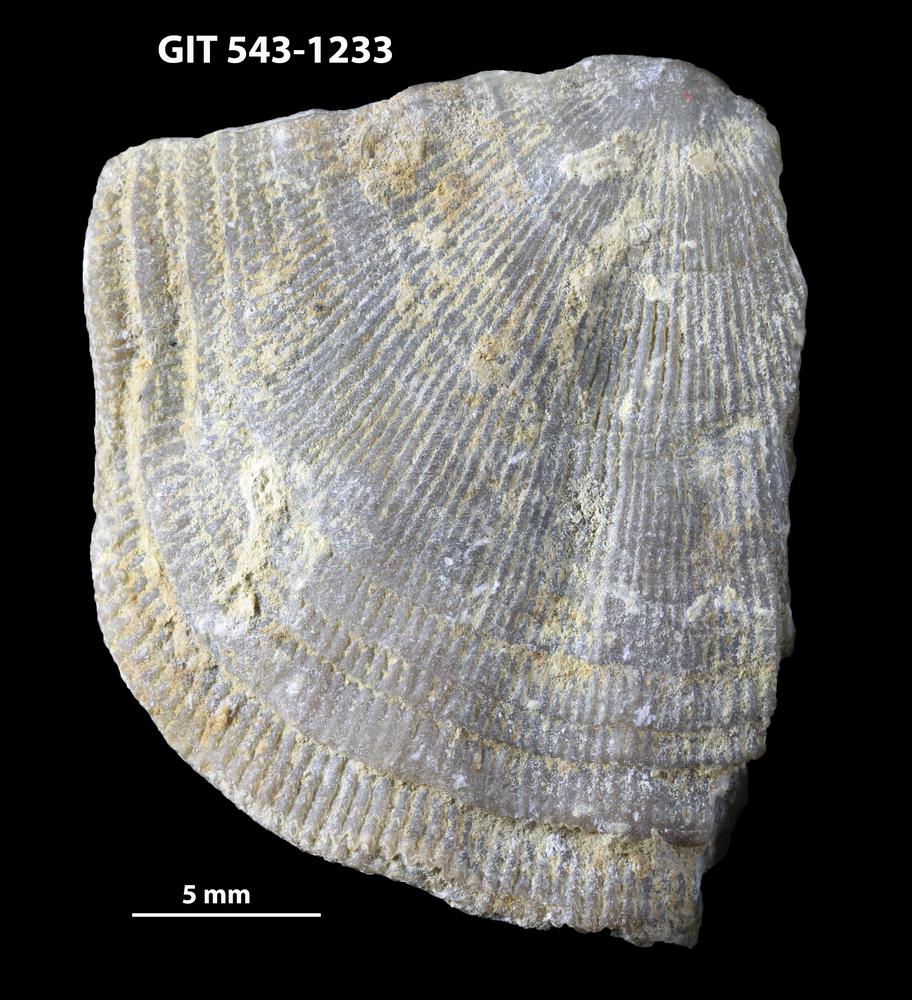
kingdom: Animalia
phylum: Brachiopoda
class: Rhynchonellata
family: Clitambonitidae
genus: Vellamo
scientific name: Vellamo
